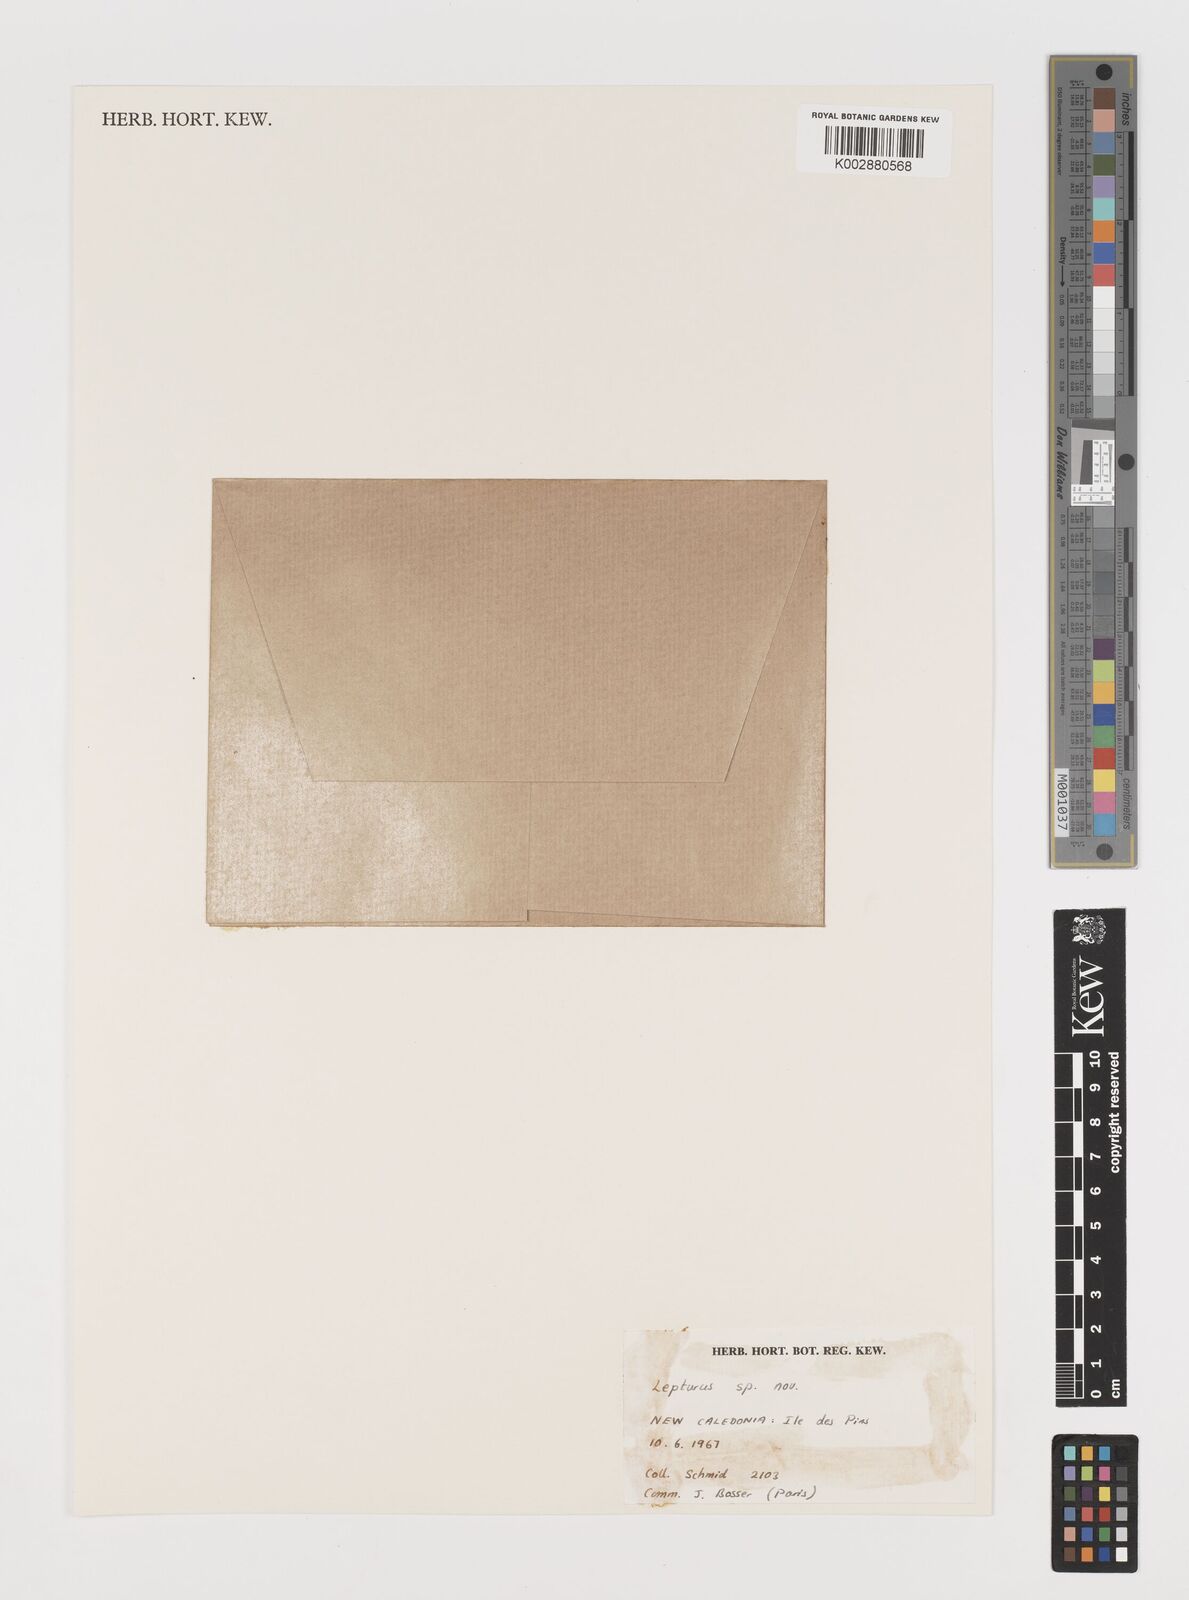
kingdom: Plantae
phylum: Tracheophyta
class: Liliopsida
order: Poales
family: Poaceae
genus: Lepturus
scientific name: Lepturus repens
